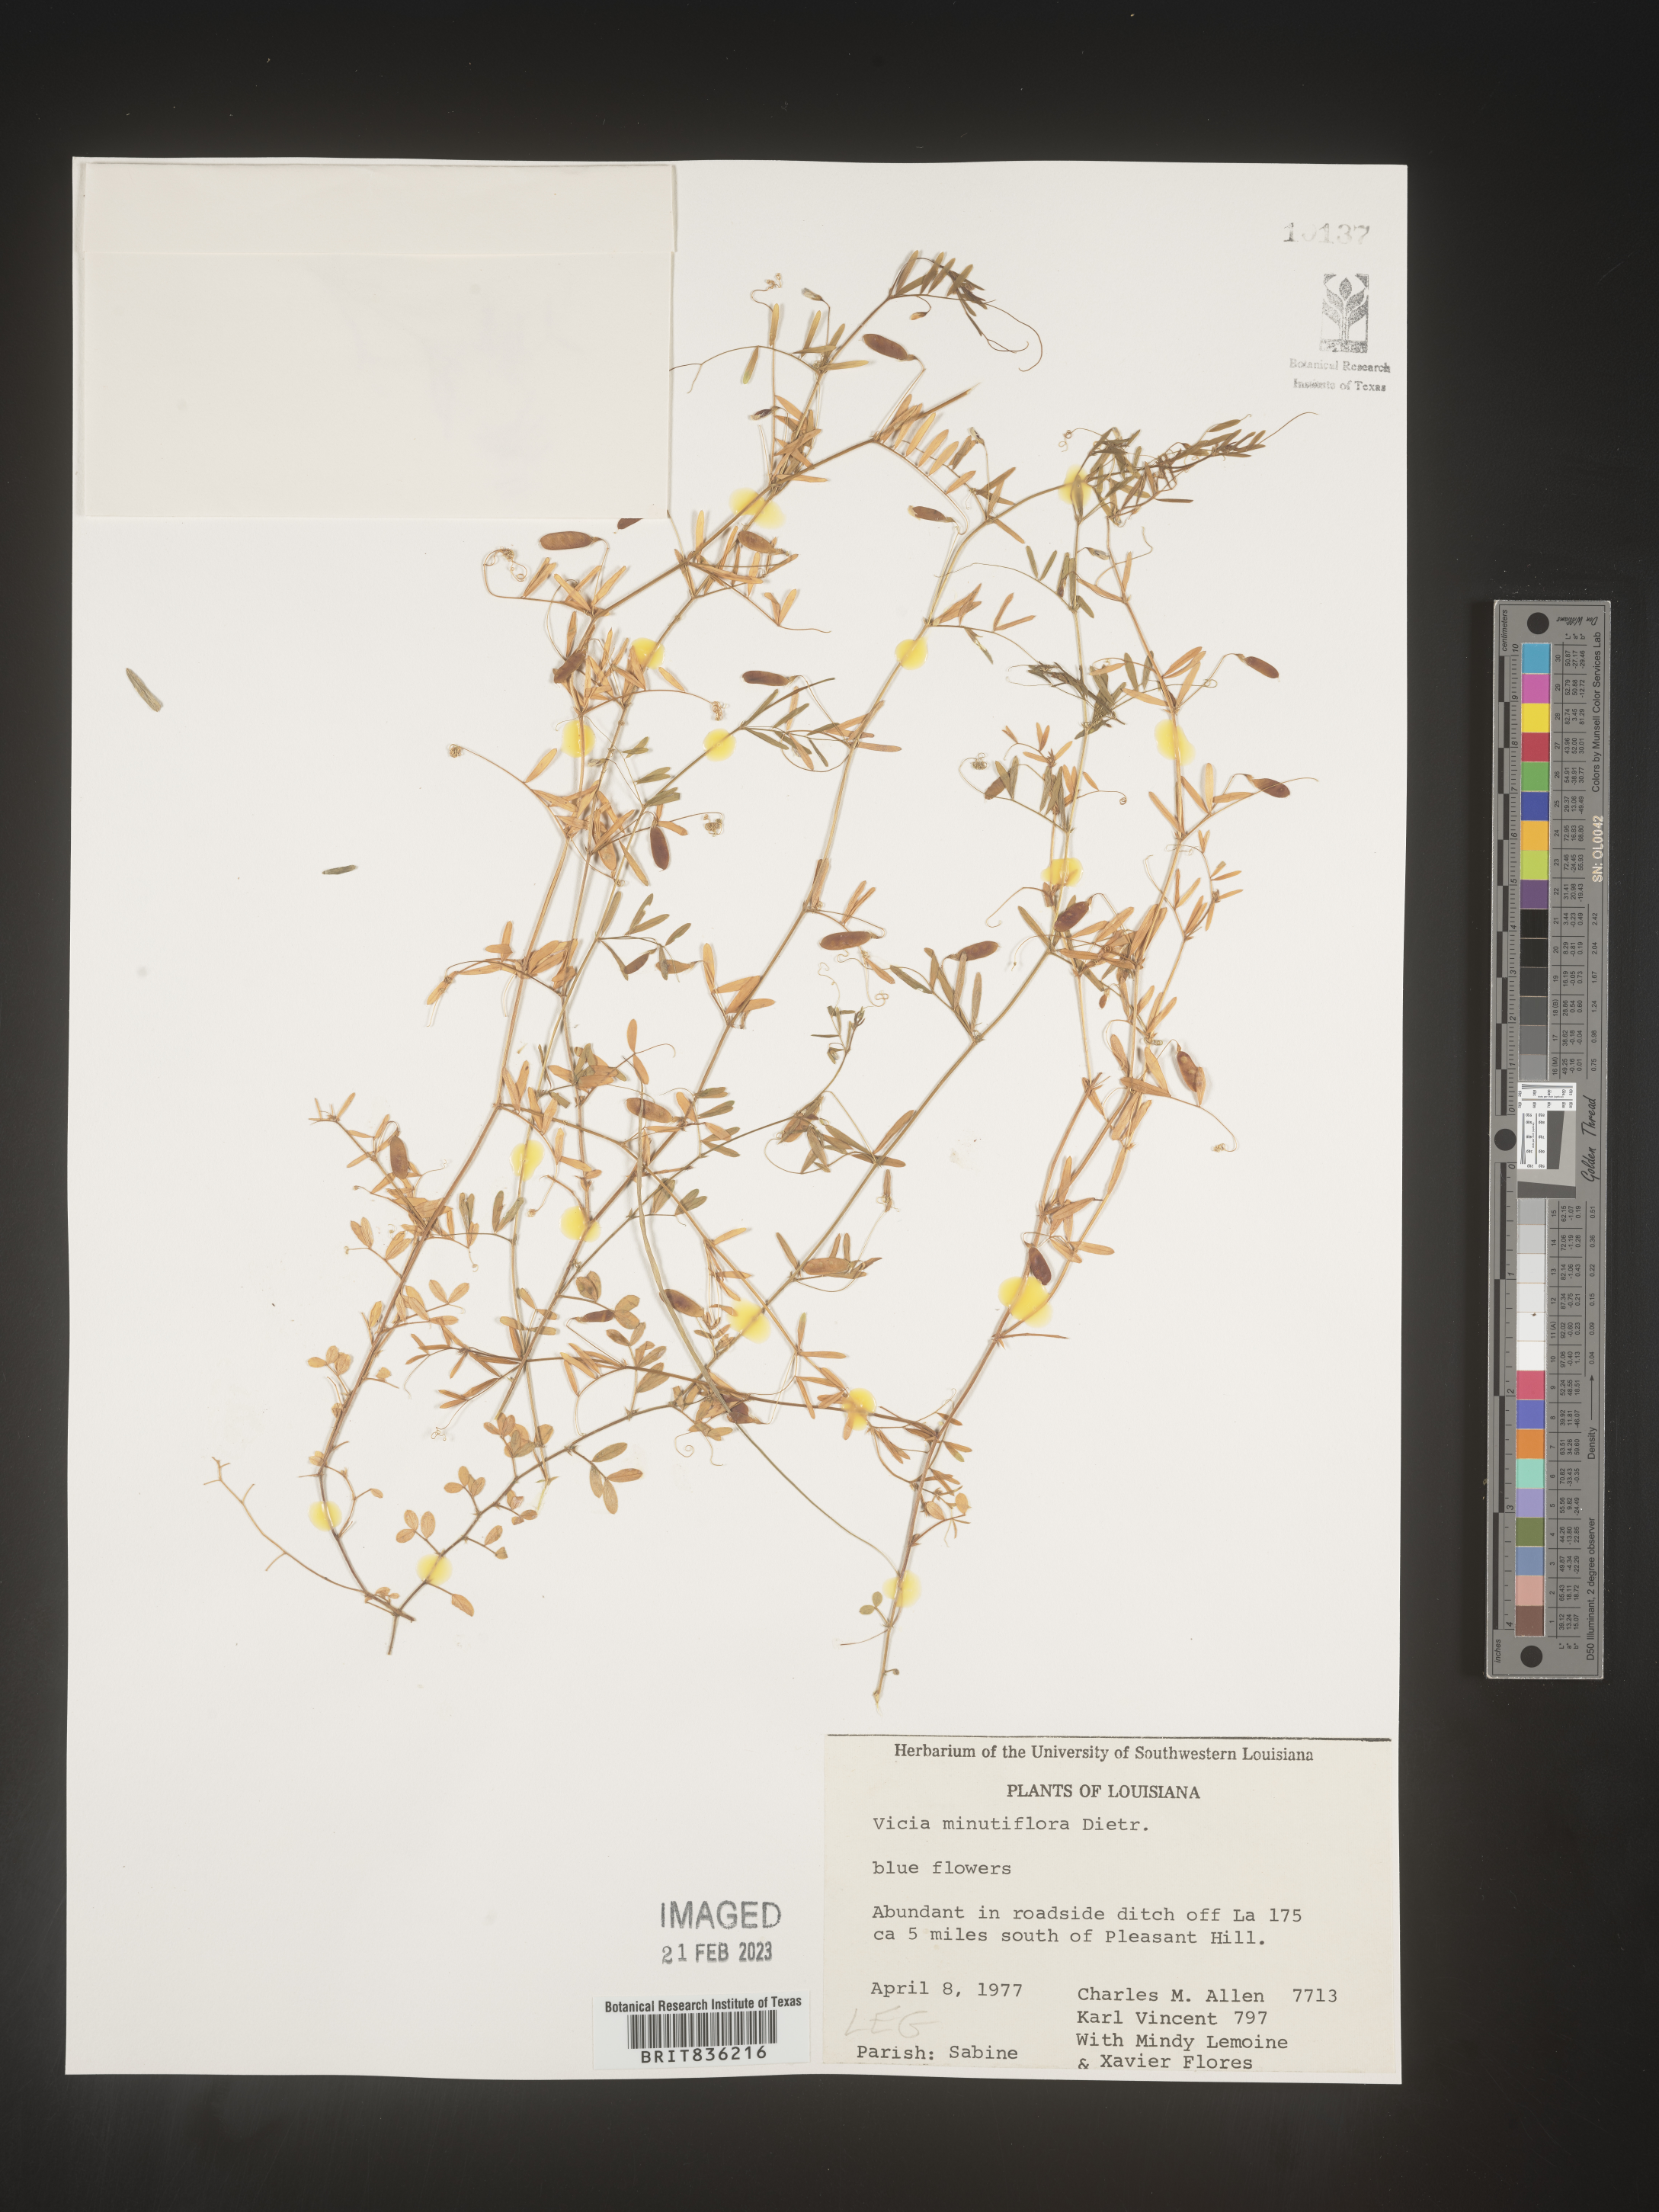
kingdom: Plantae
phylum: Tracheophyta
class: Magnoliopsida
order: Fabales
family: Fabaceae
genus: Vicia
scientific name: Vicia minutiflora
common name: Pygmy-flower vetch
